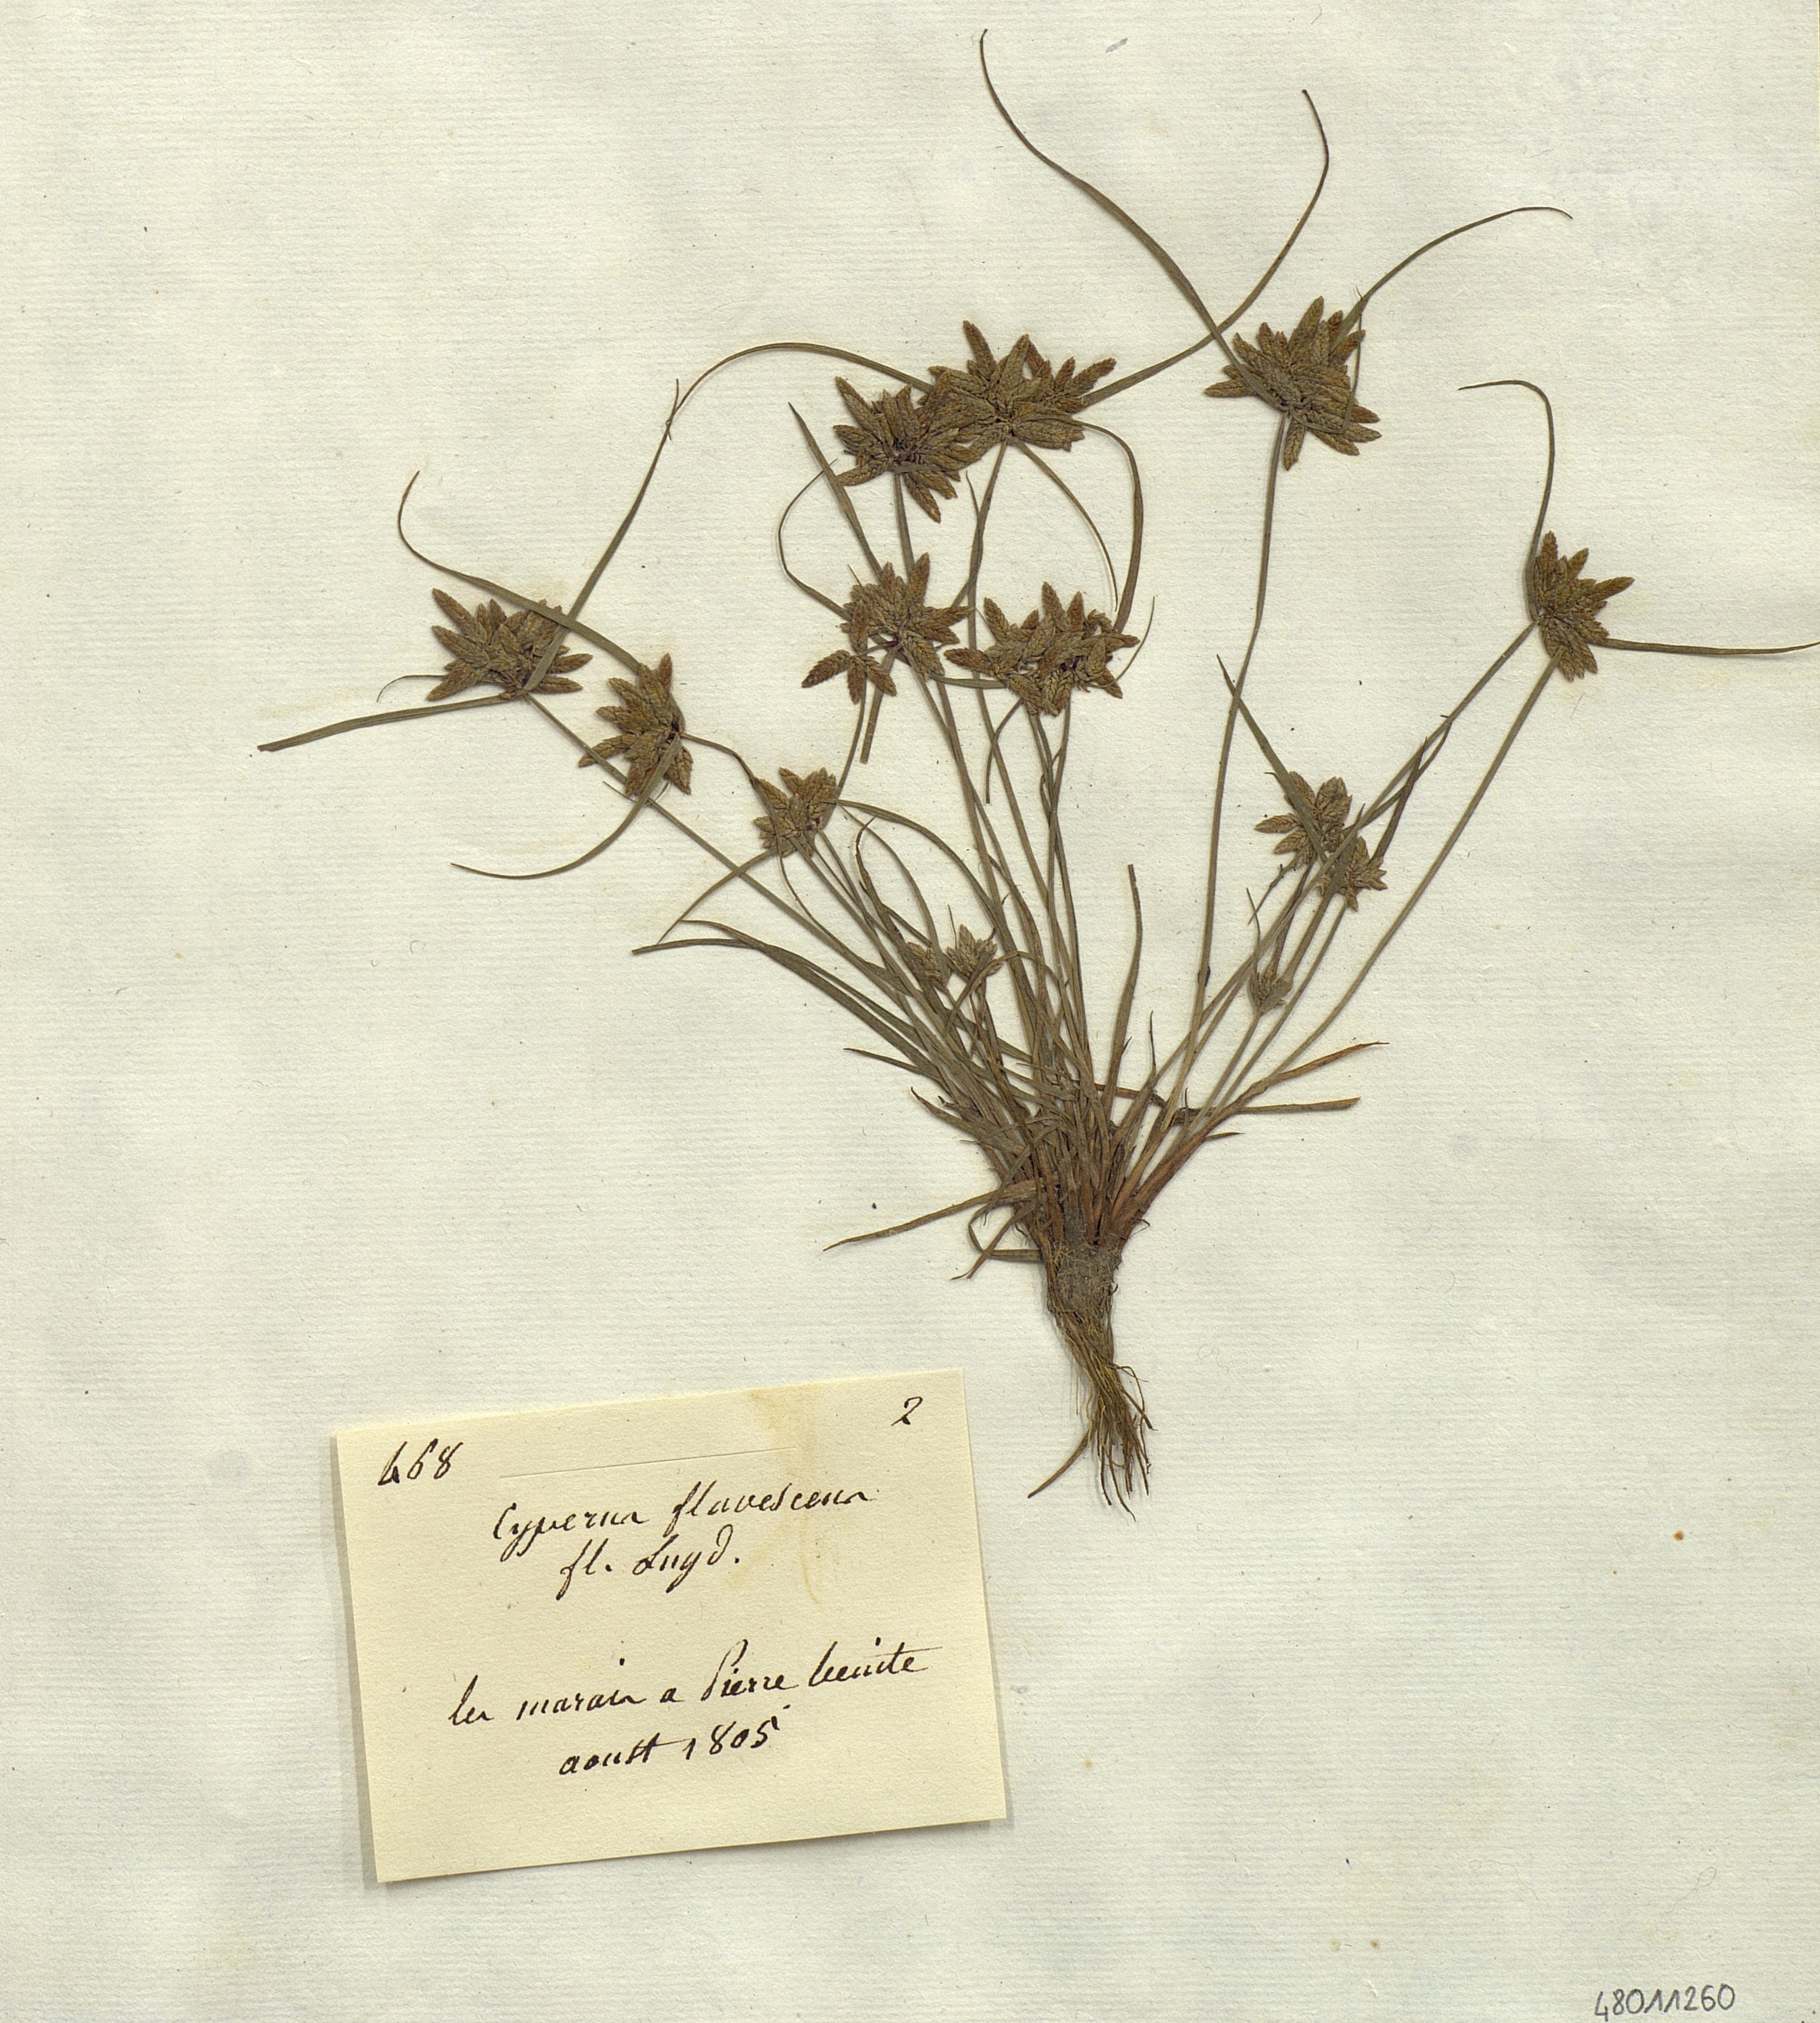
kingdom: Plantae
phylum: Tracheophyta
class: Liliopsida
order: Poales
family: Cyperaceae
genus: Cyperus
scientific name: Cyperus flavescens
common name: Yellow galingale
